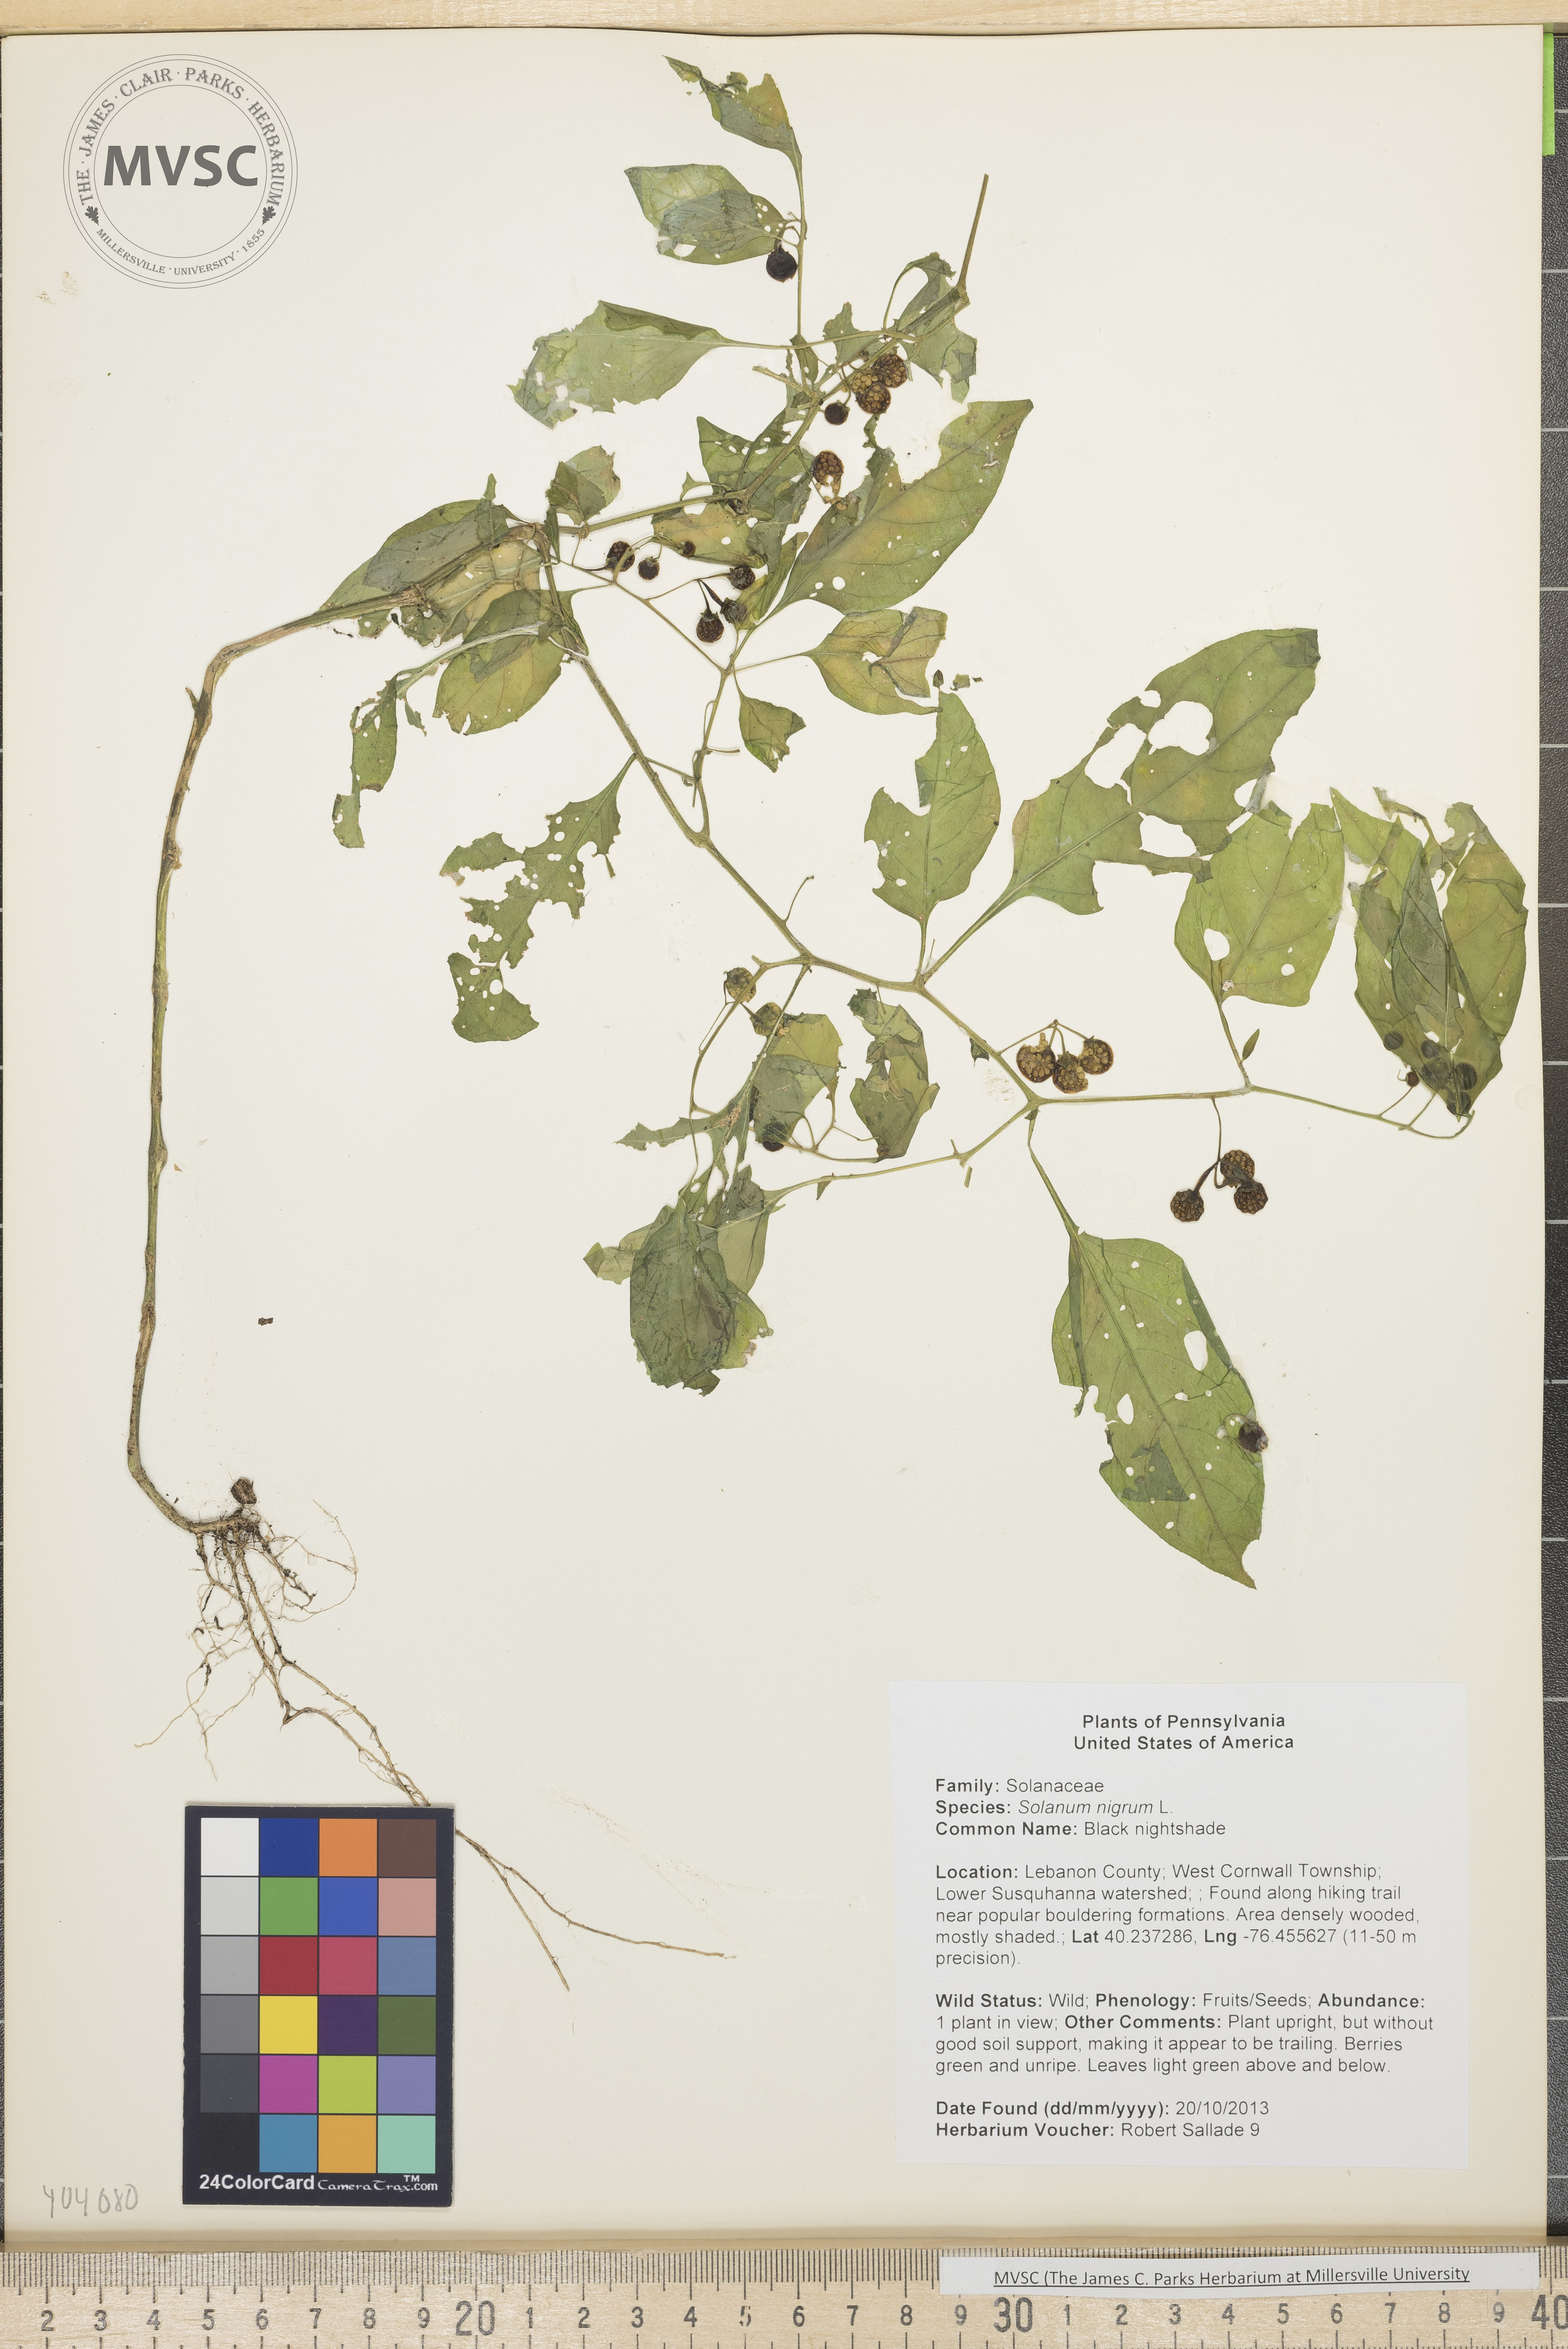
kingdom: Plantae
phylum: Tracheophyta
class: Magnoliopsida
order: Solanales
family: Solanaceae
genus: Solanum
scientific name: Solanum americanum
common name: Black nightshade
